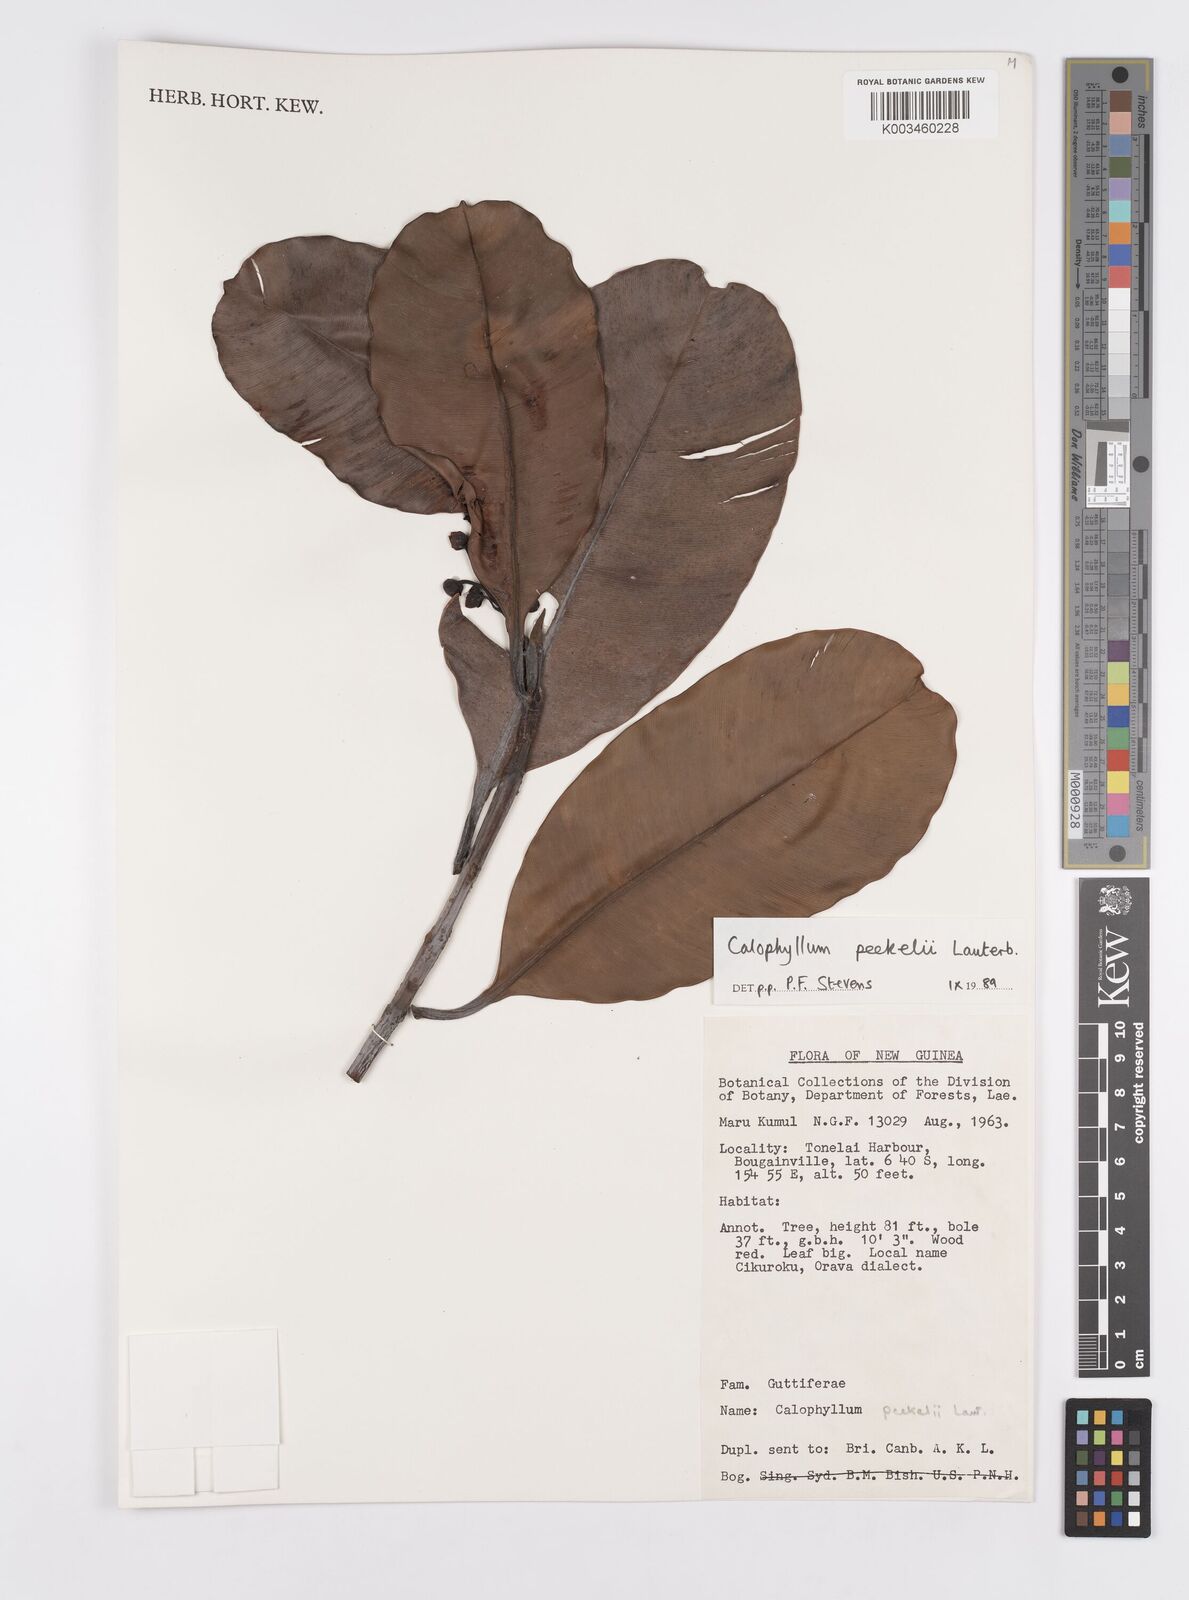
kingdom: Plantae
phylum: Tracheophyta
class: Magnoliopsida
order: Malpighiales
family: Calophyllaceae
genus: Calophyllum
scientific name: Calophyllum peekelii
